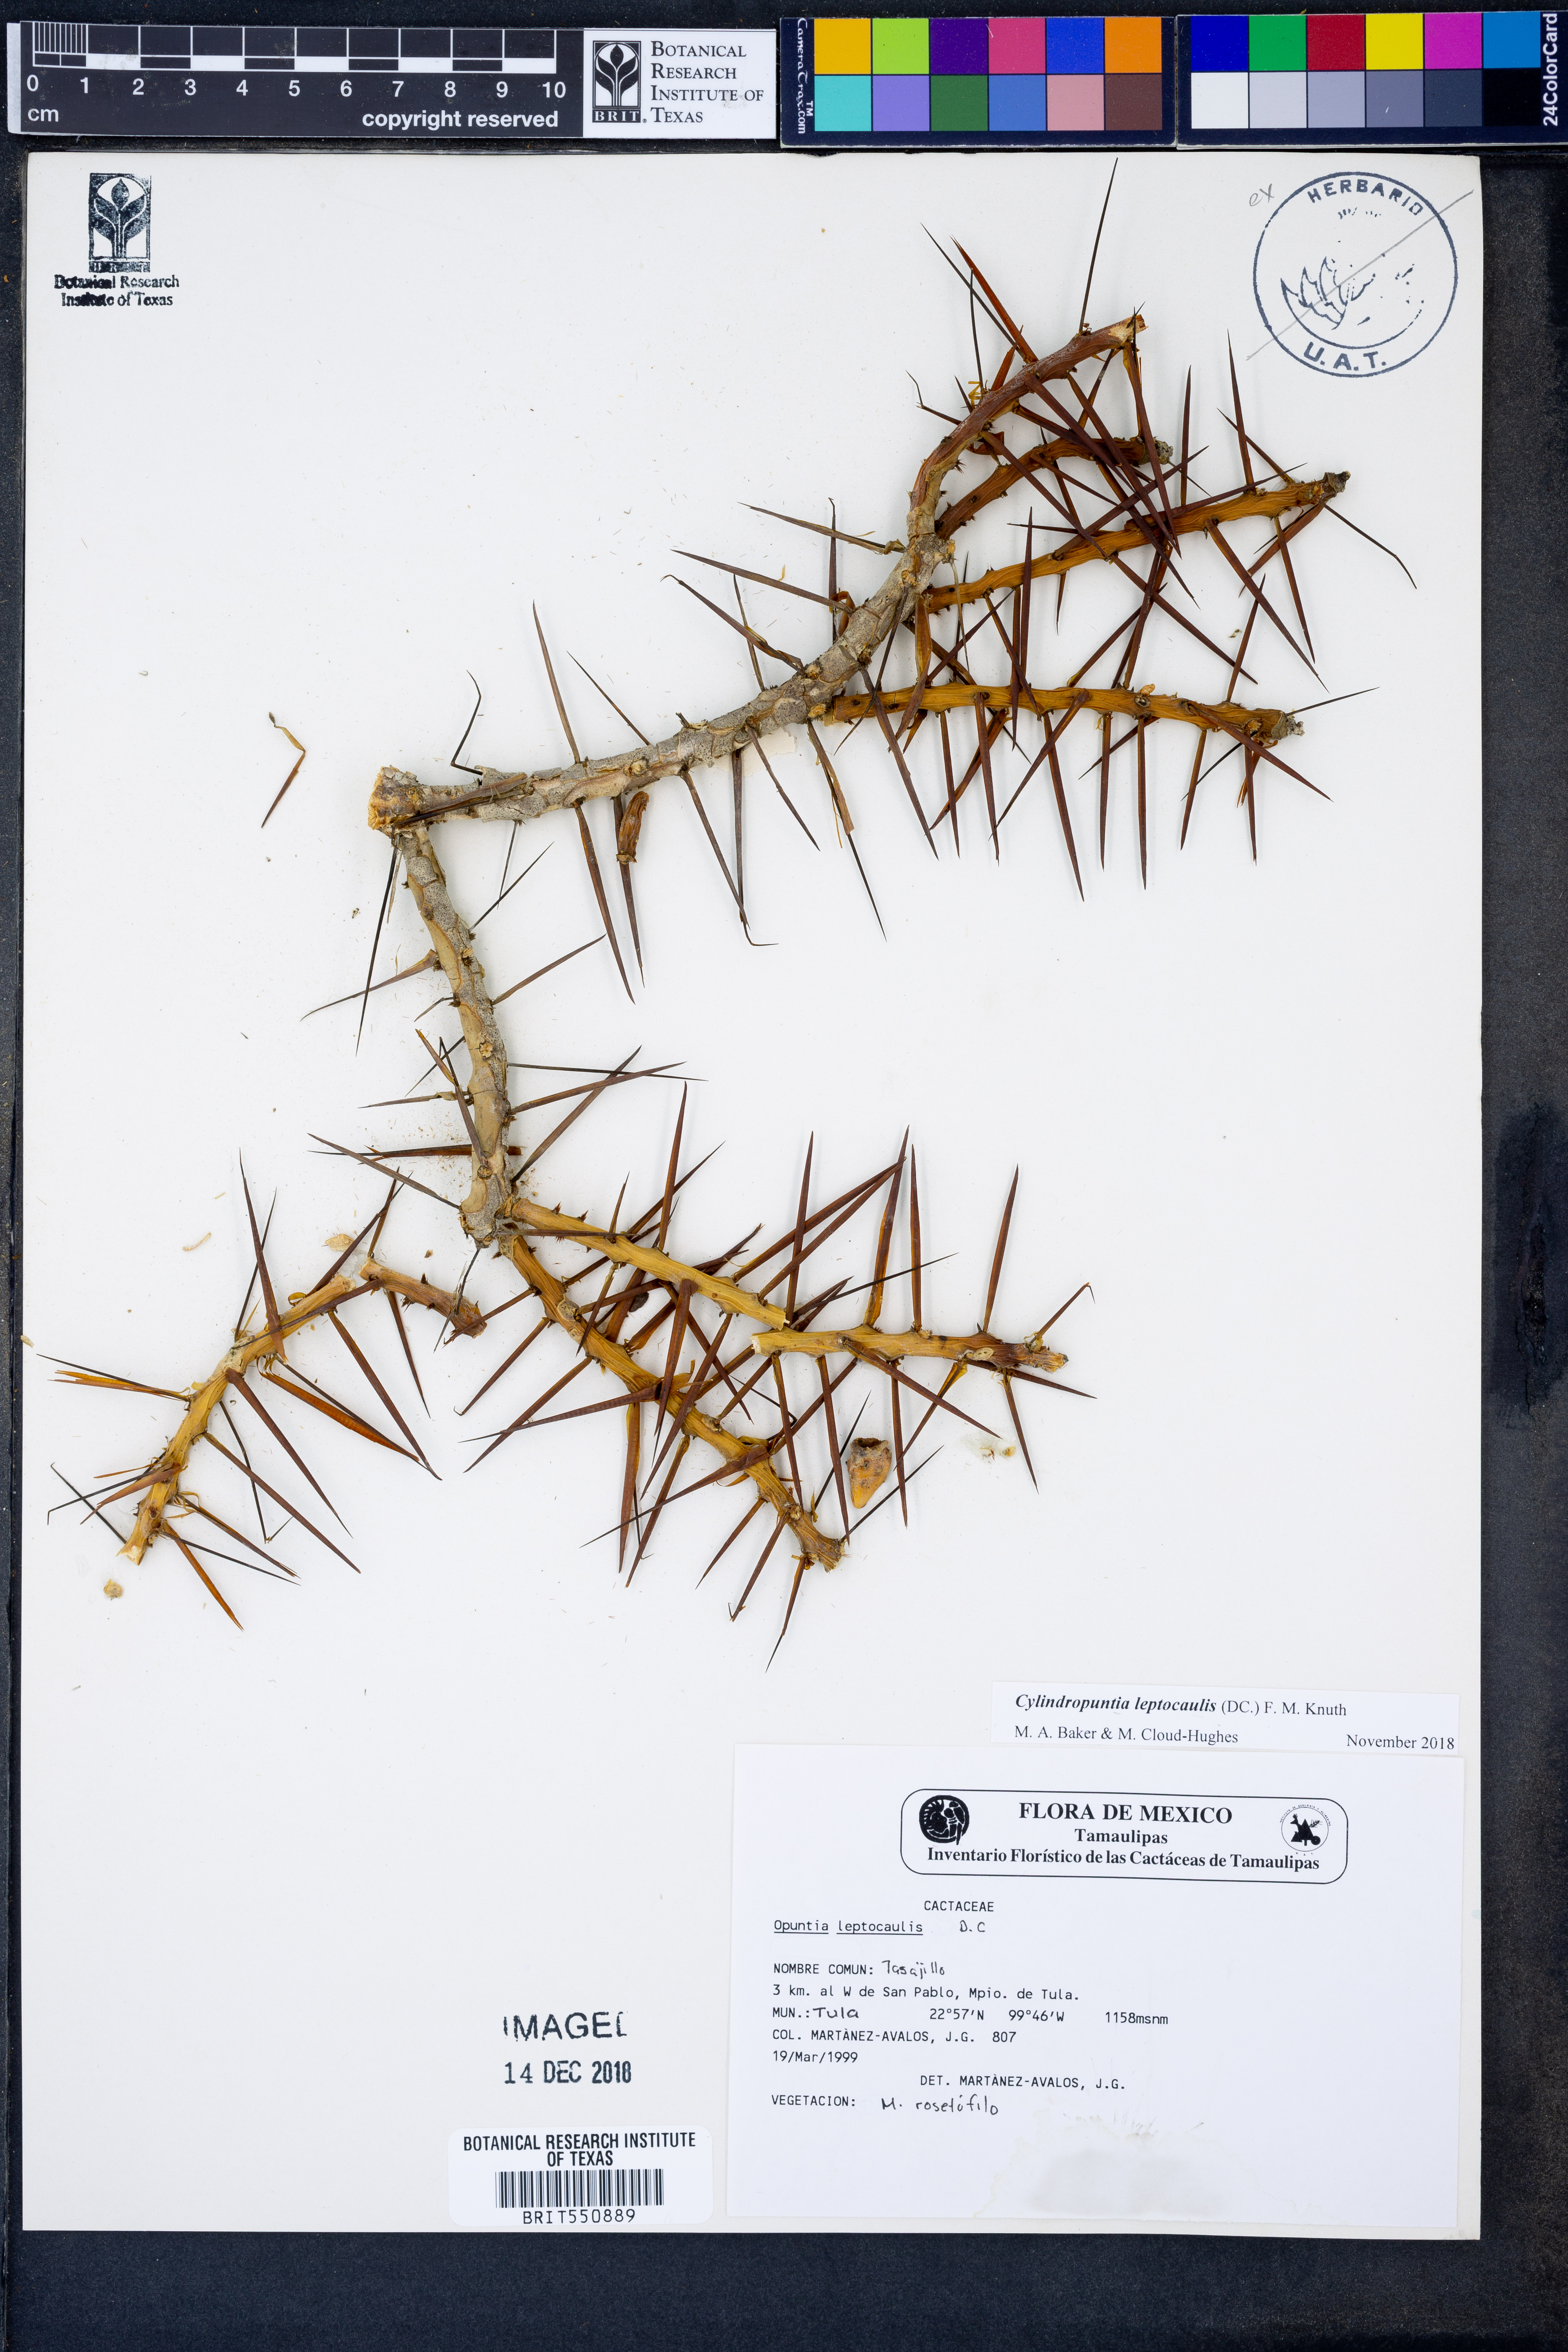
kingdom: Plantae
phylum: Tracheophyta
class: Magnoliopsida
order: Caryophyllales
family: Cactaceae
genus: Cylindropuntia
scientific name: Cylindropuntia leptocaulis
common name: Christmas cactus
